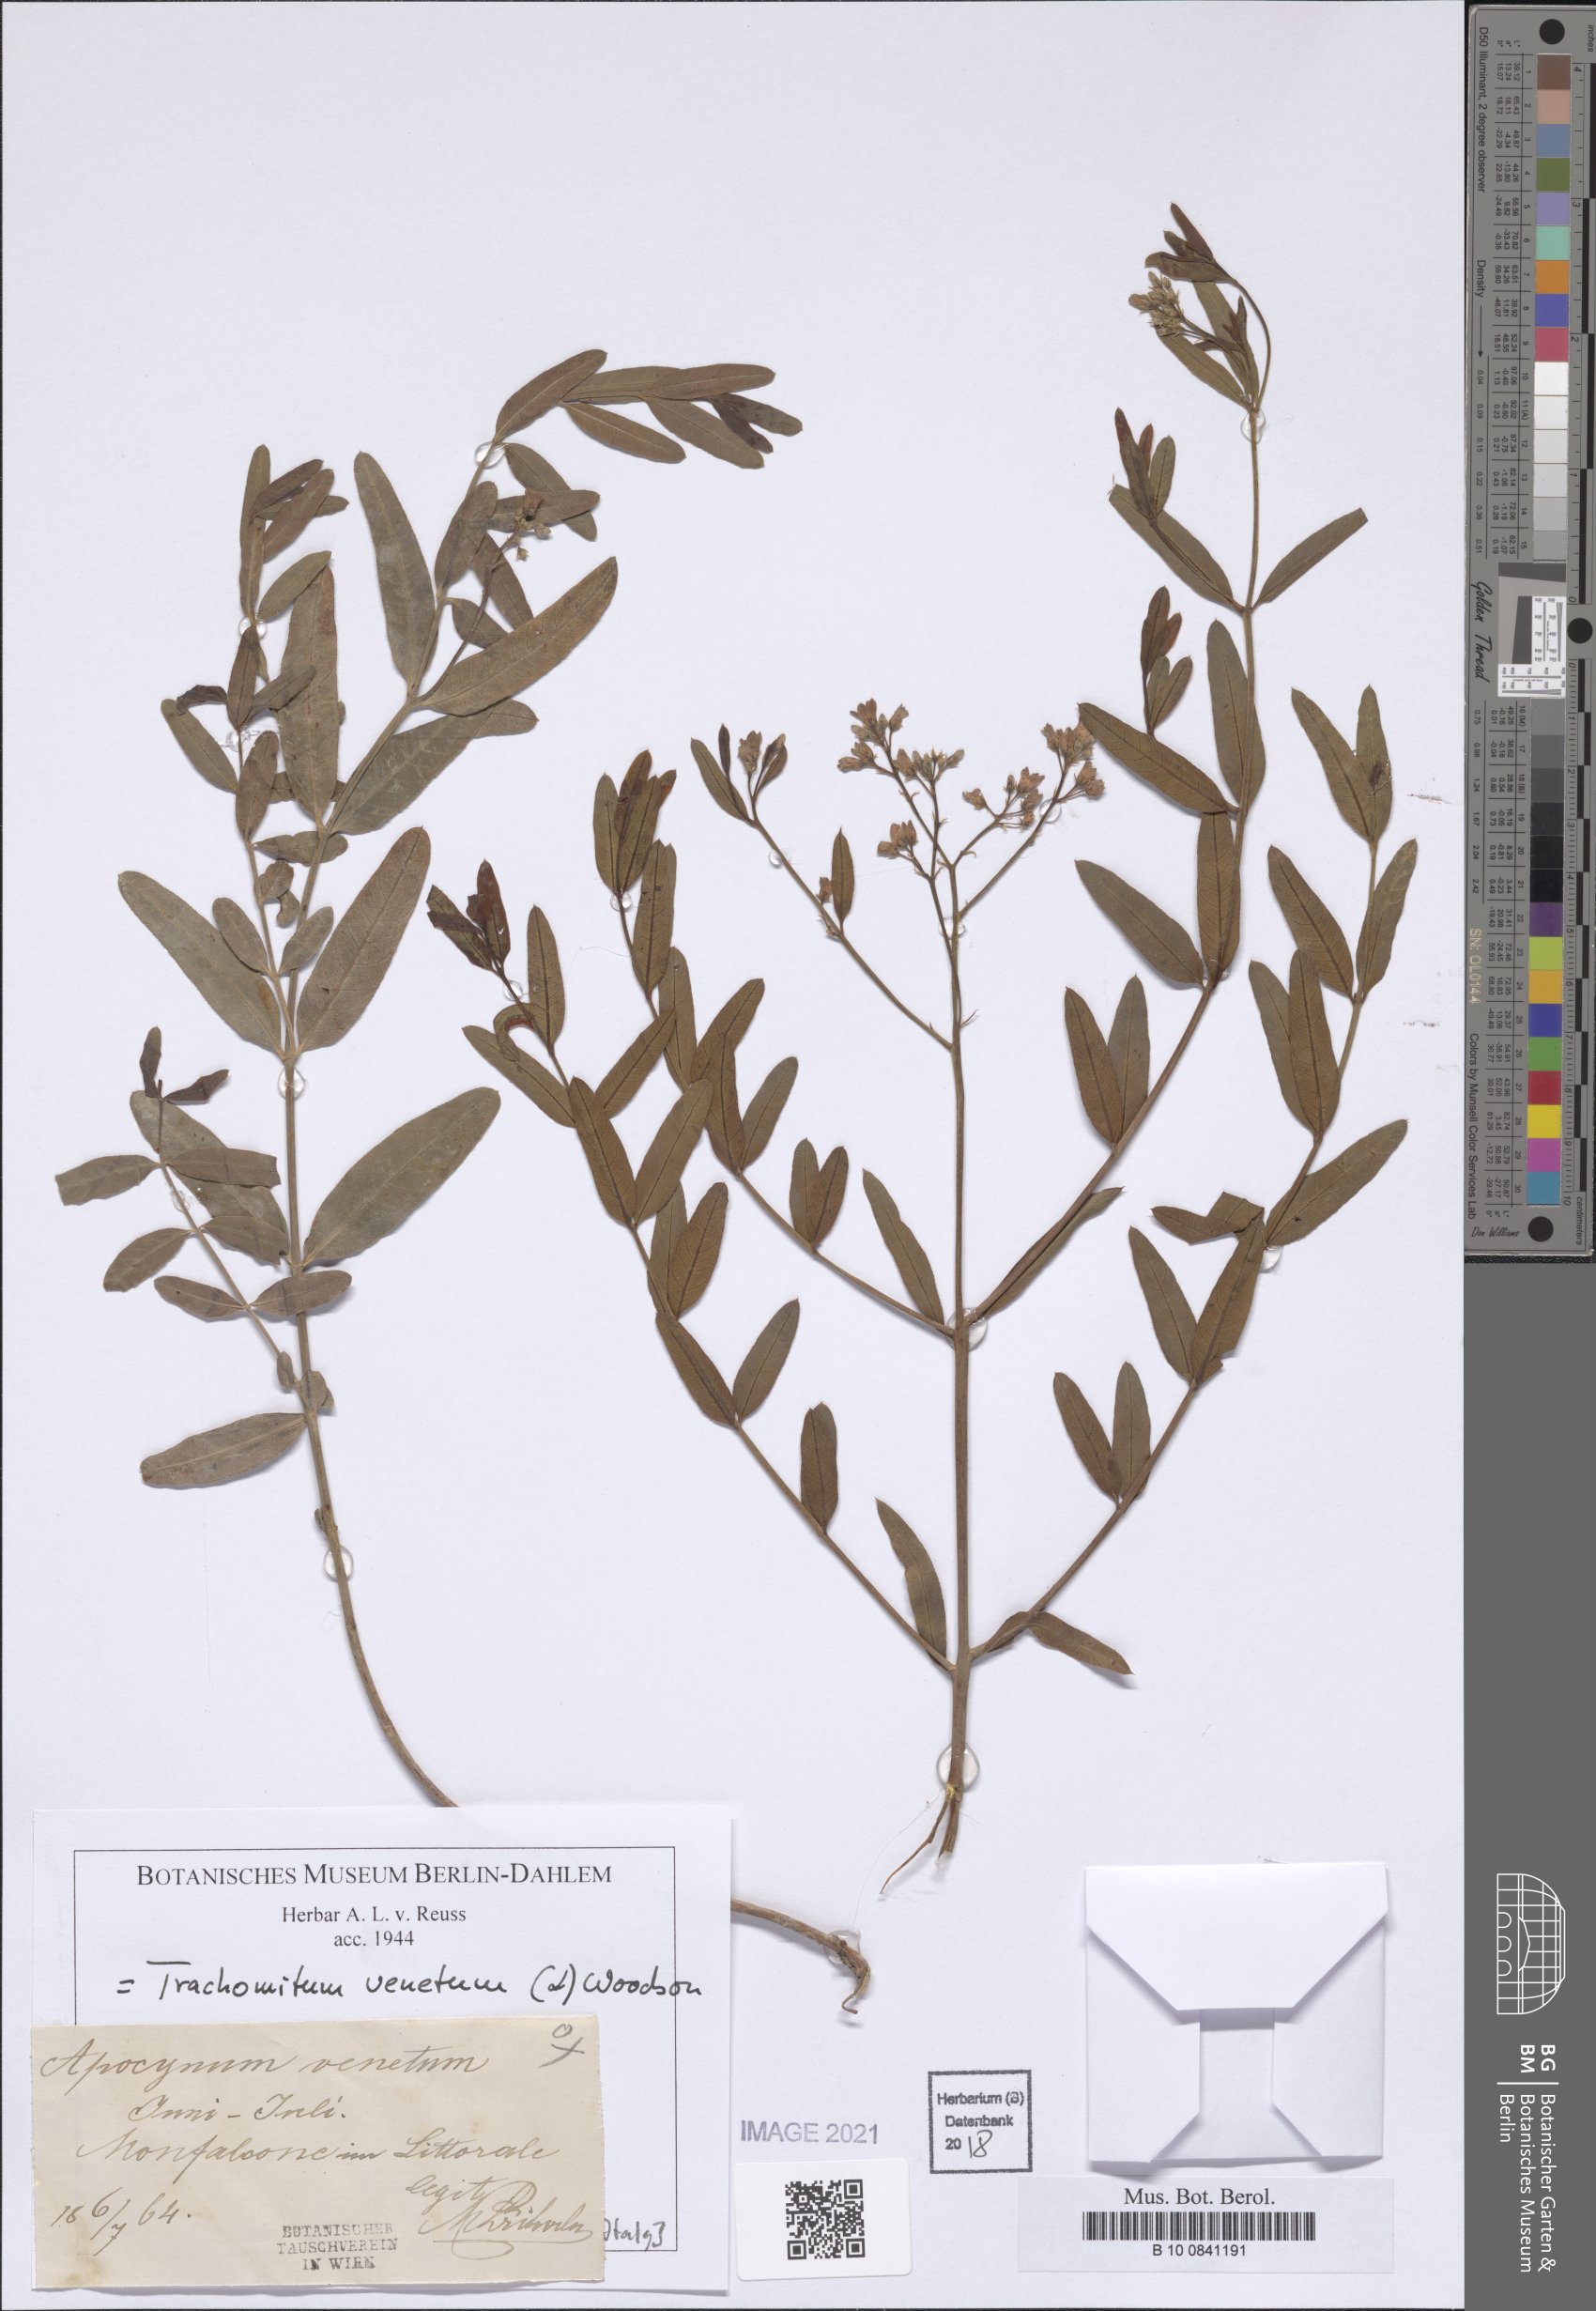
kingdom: Plantae
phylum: Tracheophyta
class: Magnoliopsida
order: Gentianales
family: Apocynaceae
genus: Poacynum
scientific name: Poacynum venetum
